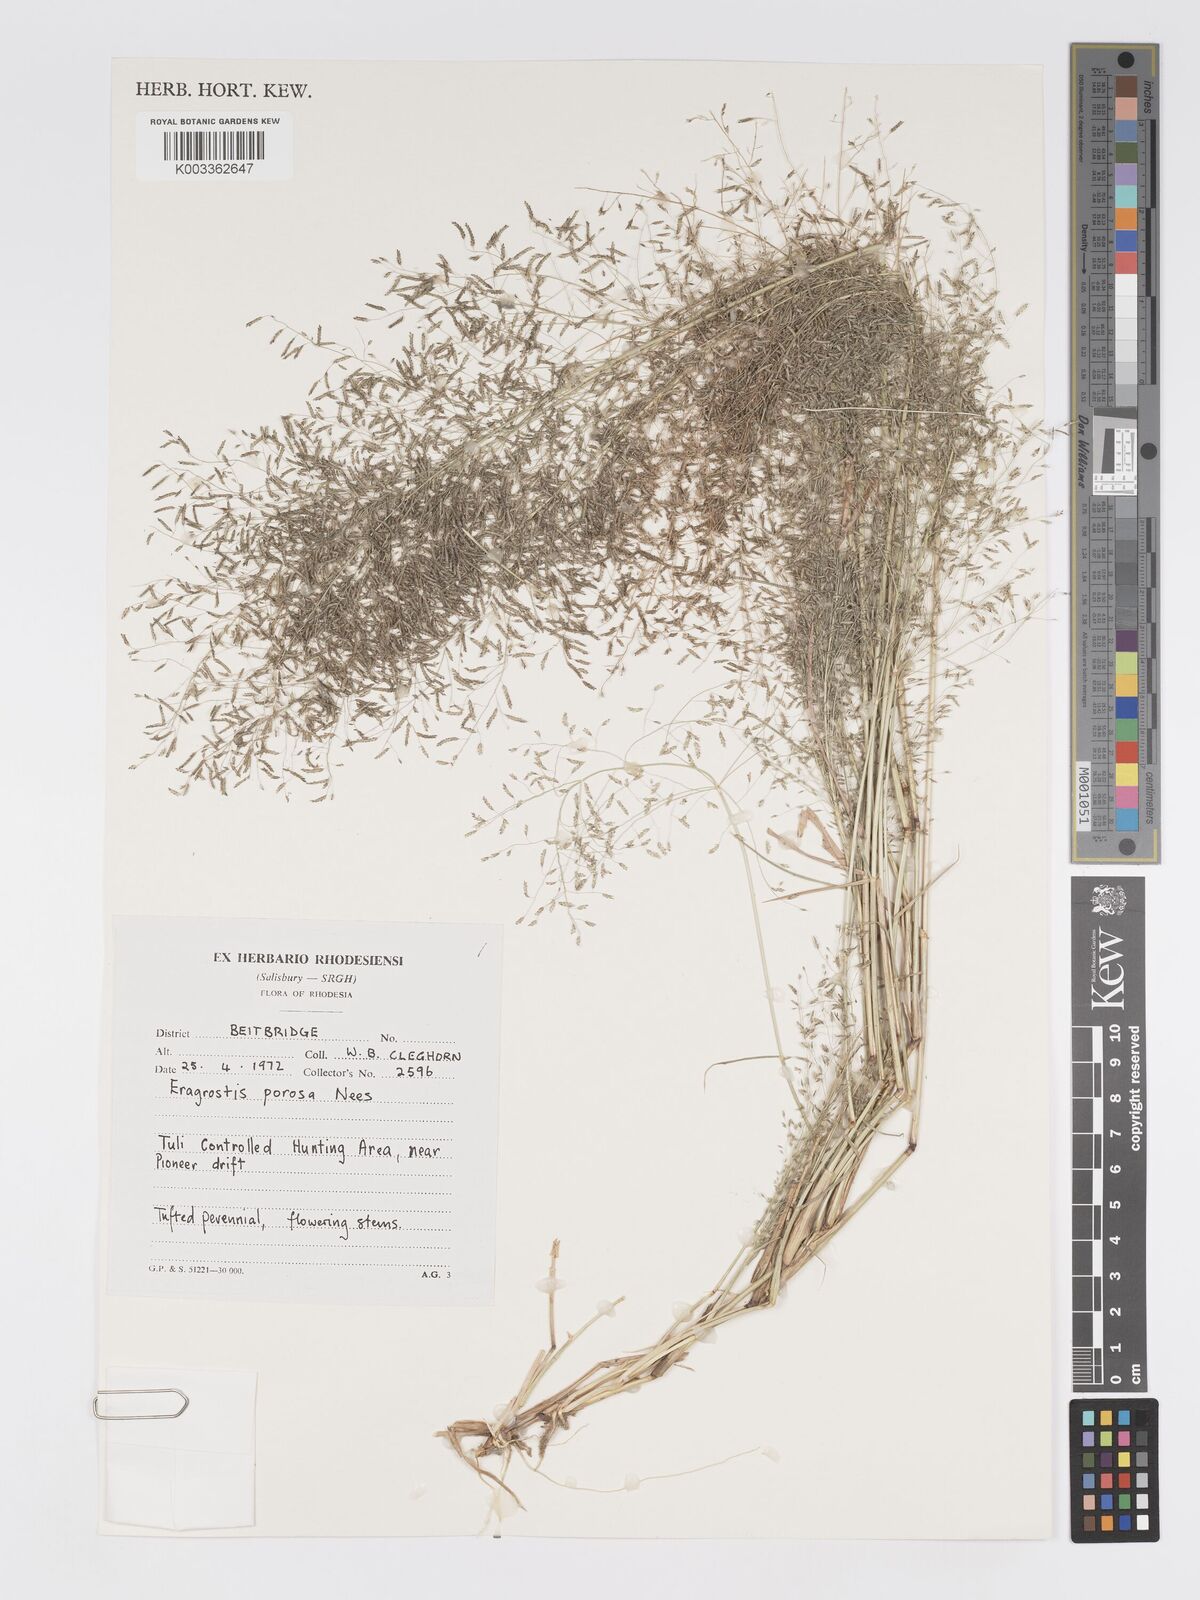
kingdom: Plantae
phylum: Tracheophyta
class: Liliopsida
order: Poales
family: Poaceae
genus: Eragrostis
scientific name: Eragrostis porosa
